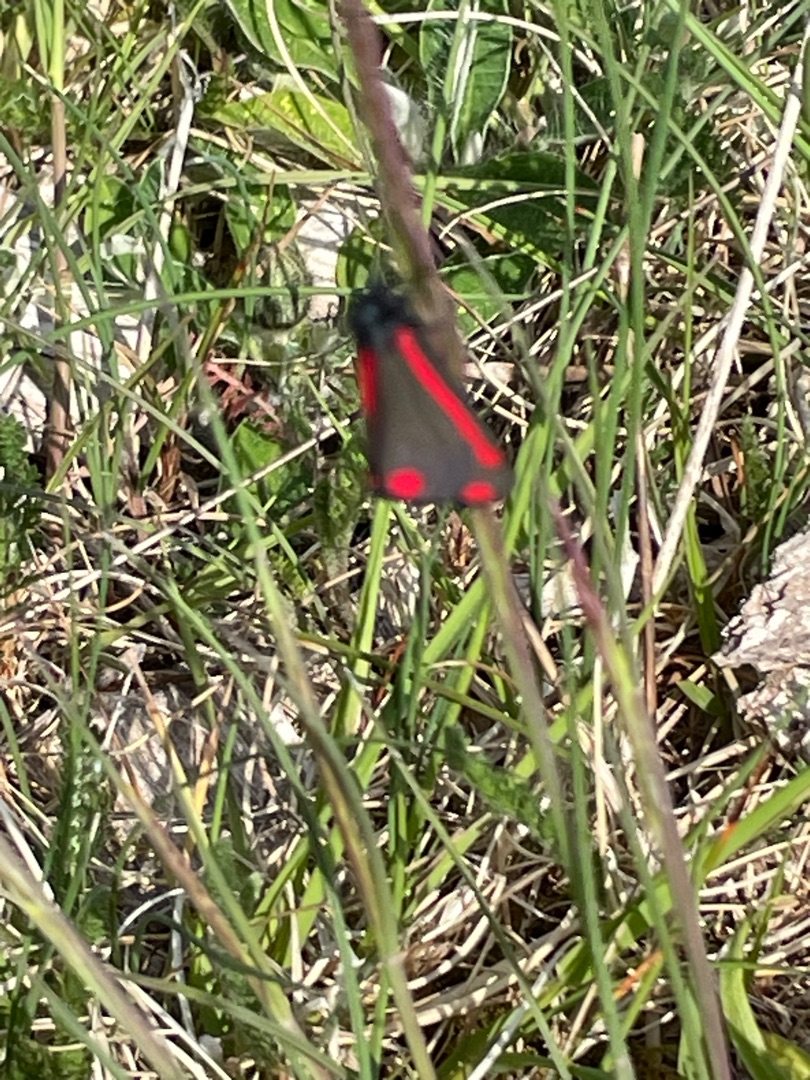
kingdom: Animalia
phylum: Arthropoda
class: Insecta
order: Lepidoptera
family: Erebidae
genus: Tyria
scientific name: Tyria jacobaeae
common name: Blodplet
